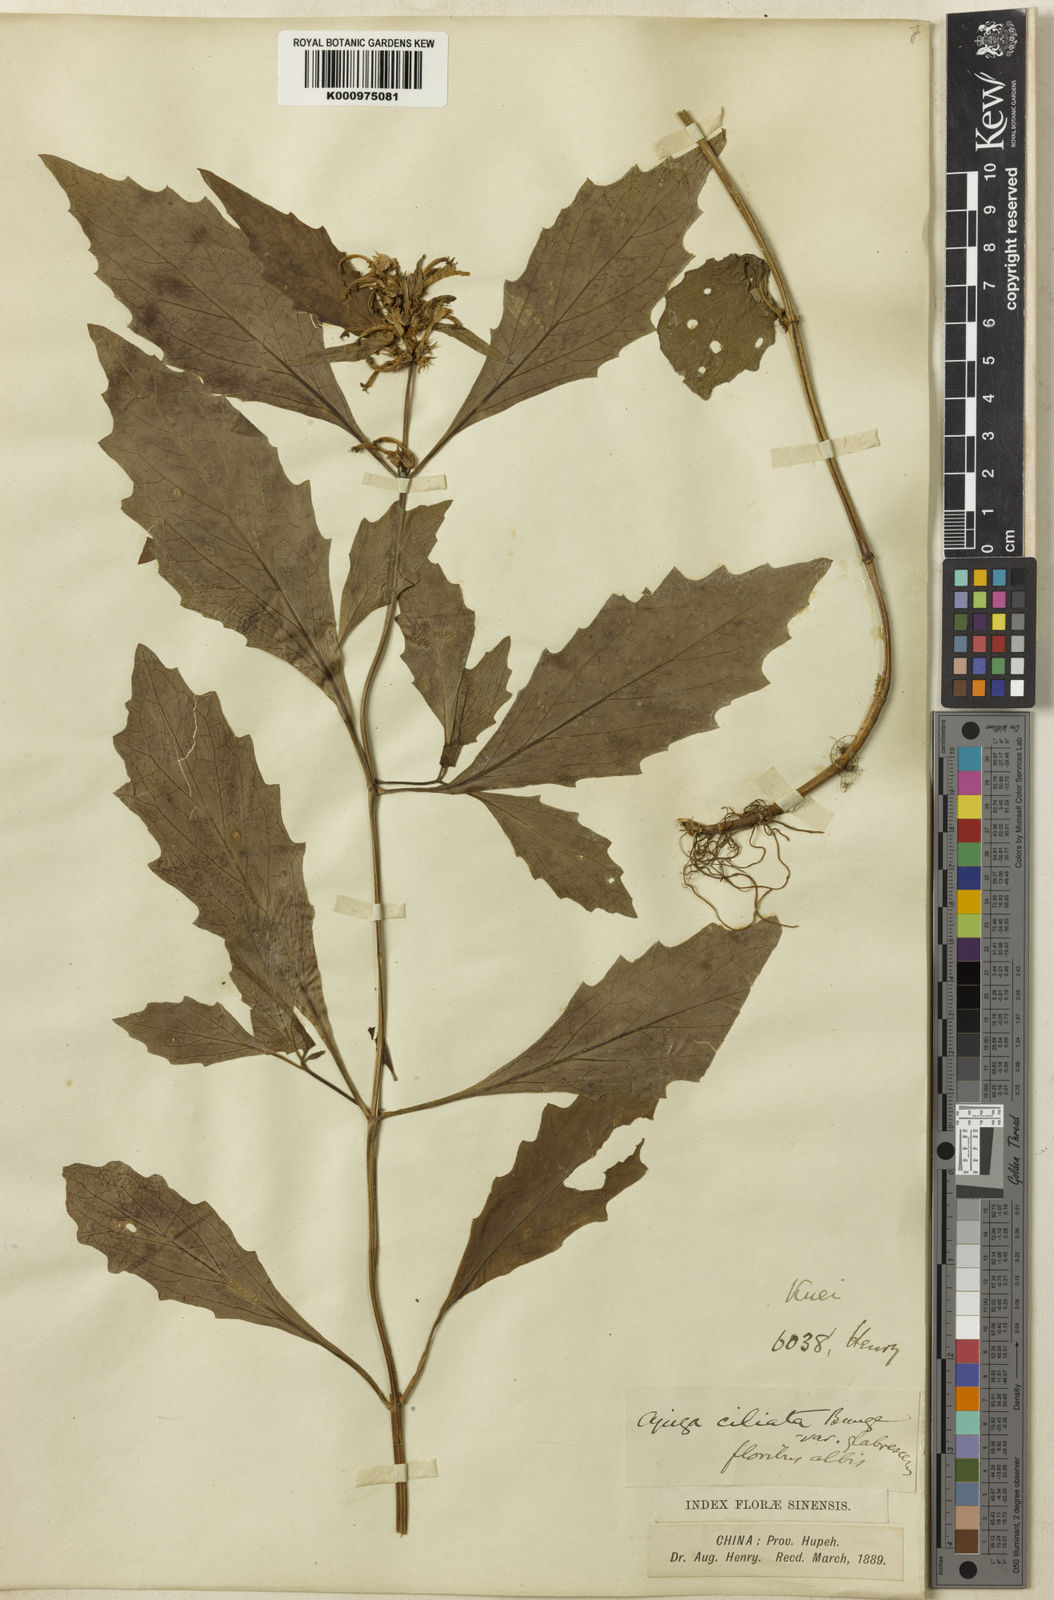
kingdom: Plantae
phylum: Tracheophyta
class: Magnoliopsida
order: Lamiales
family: Lamiaceae
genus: Ajuga
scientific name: Ajuga ciliata
